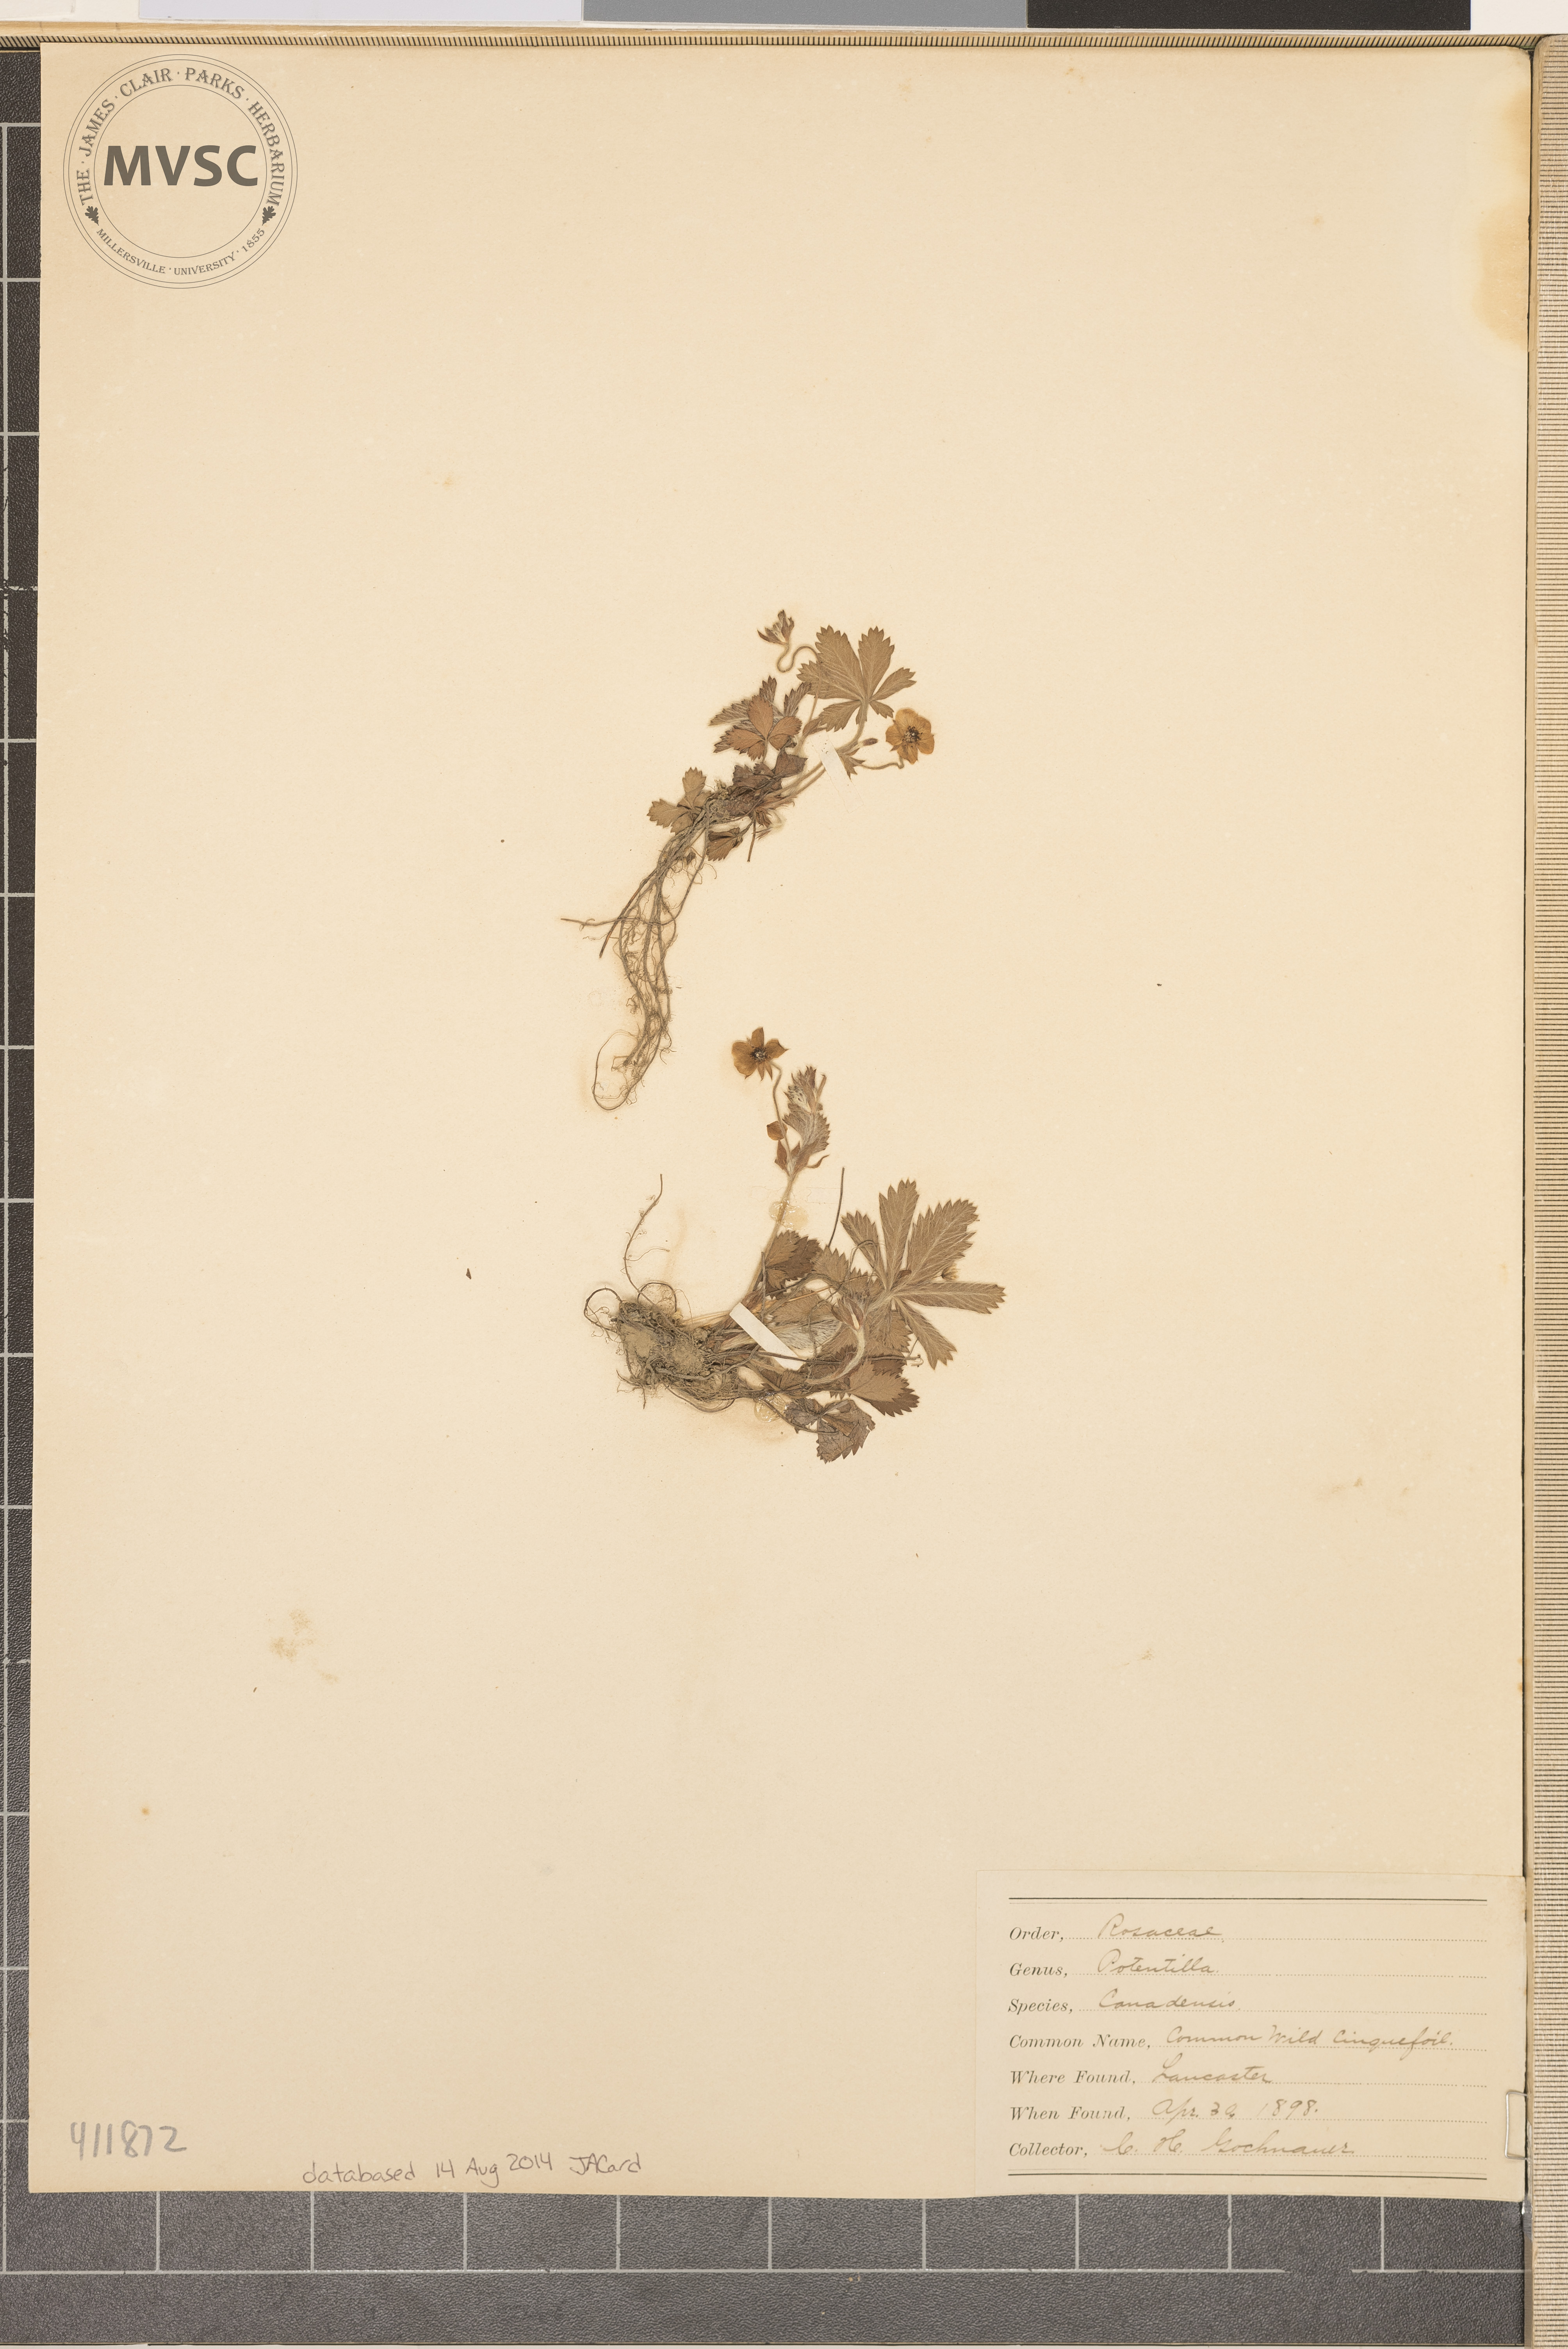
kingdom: Plantae
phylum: Tracheophyta
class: Magnoliopsida
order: Rosales
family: Rosaceae
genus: Potentilla
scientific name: Potentilla canadensis
